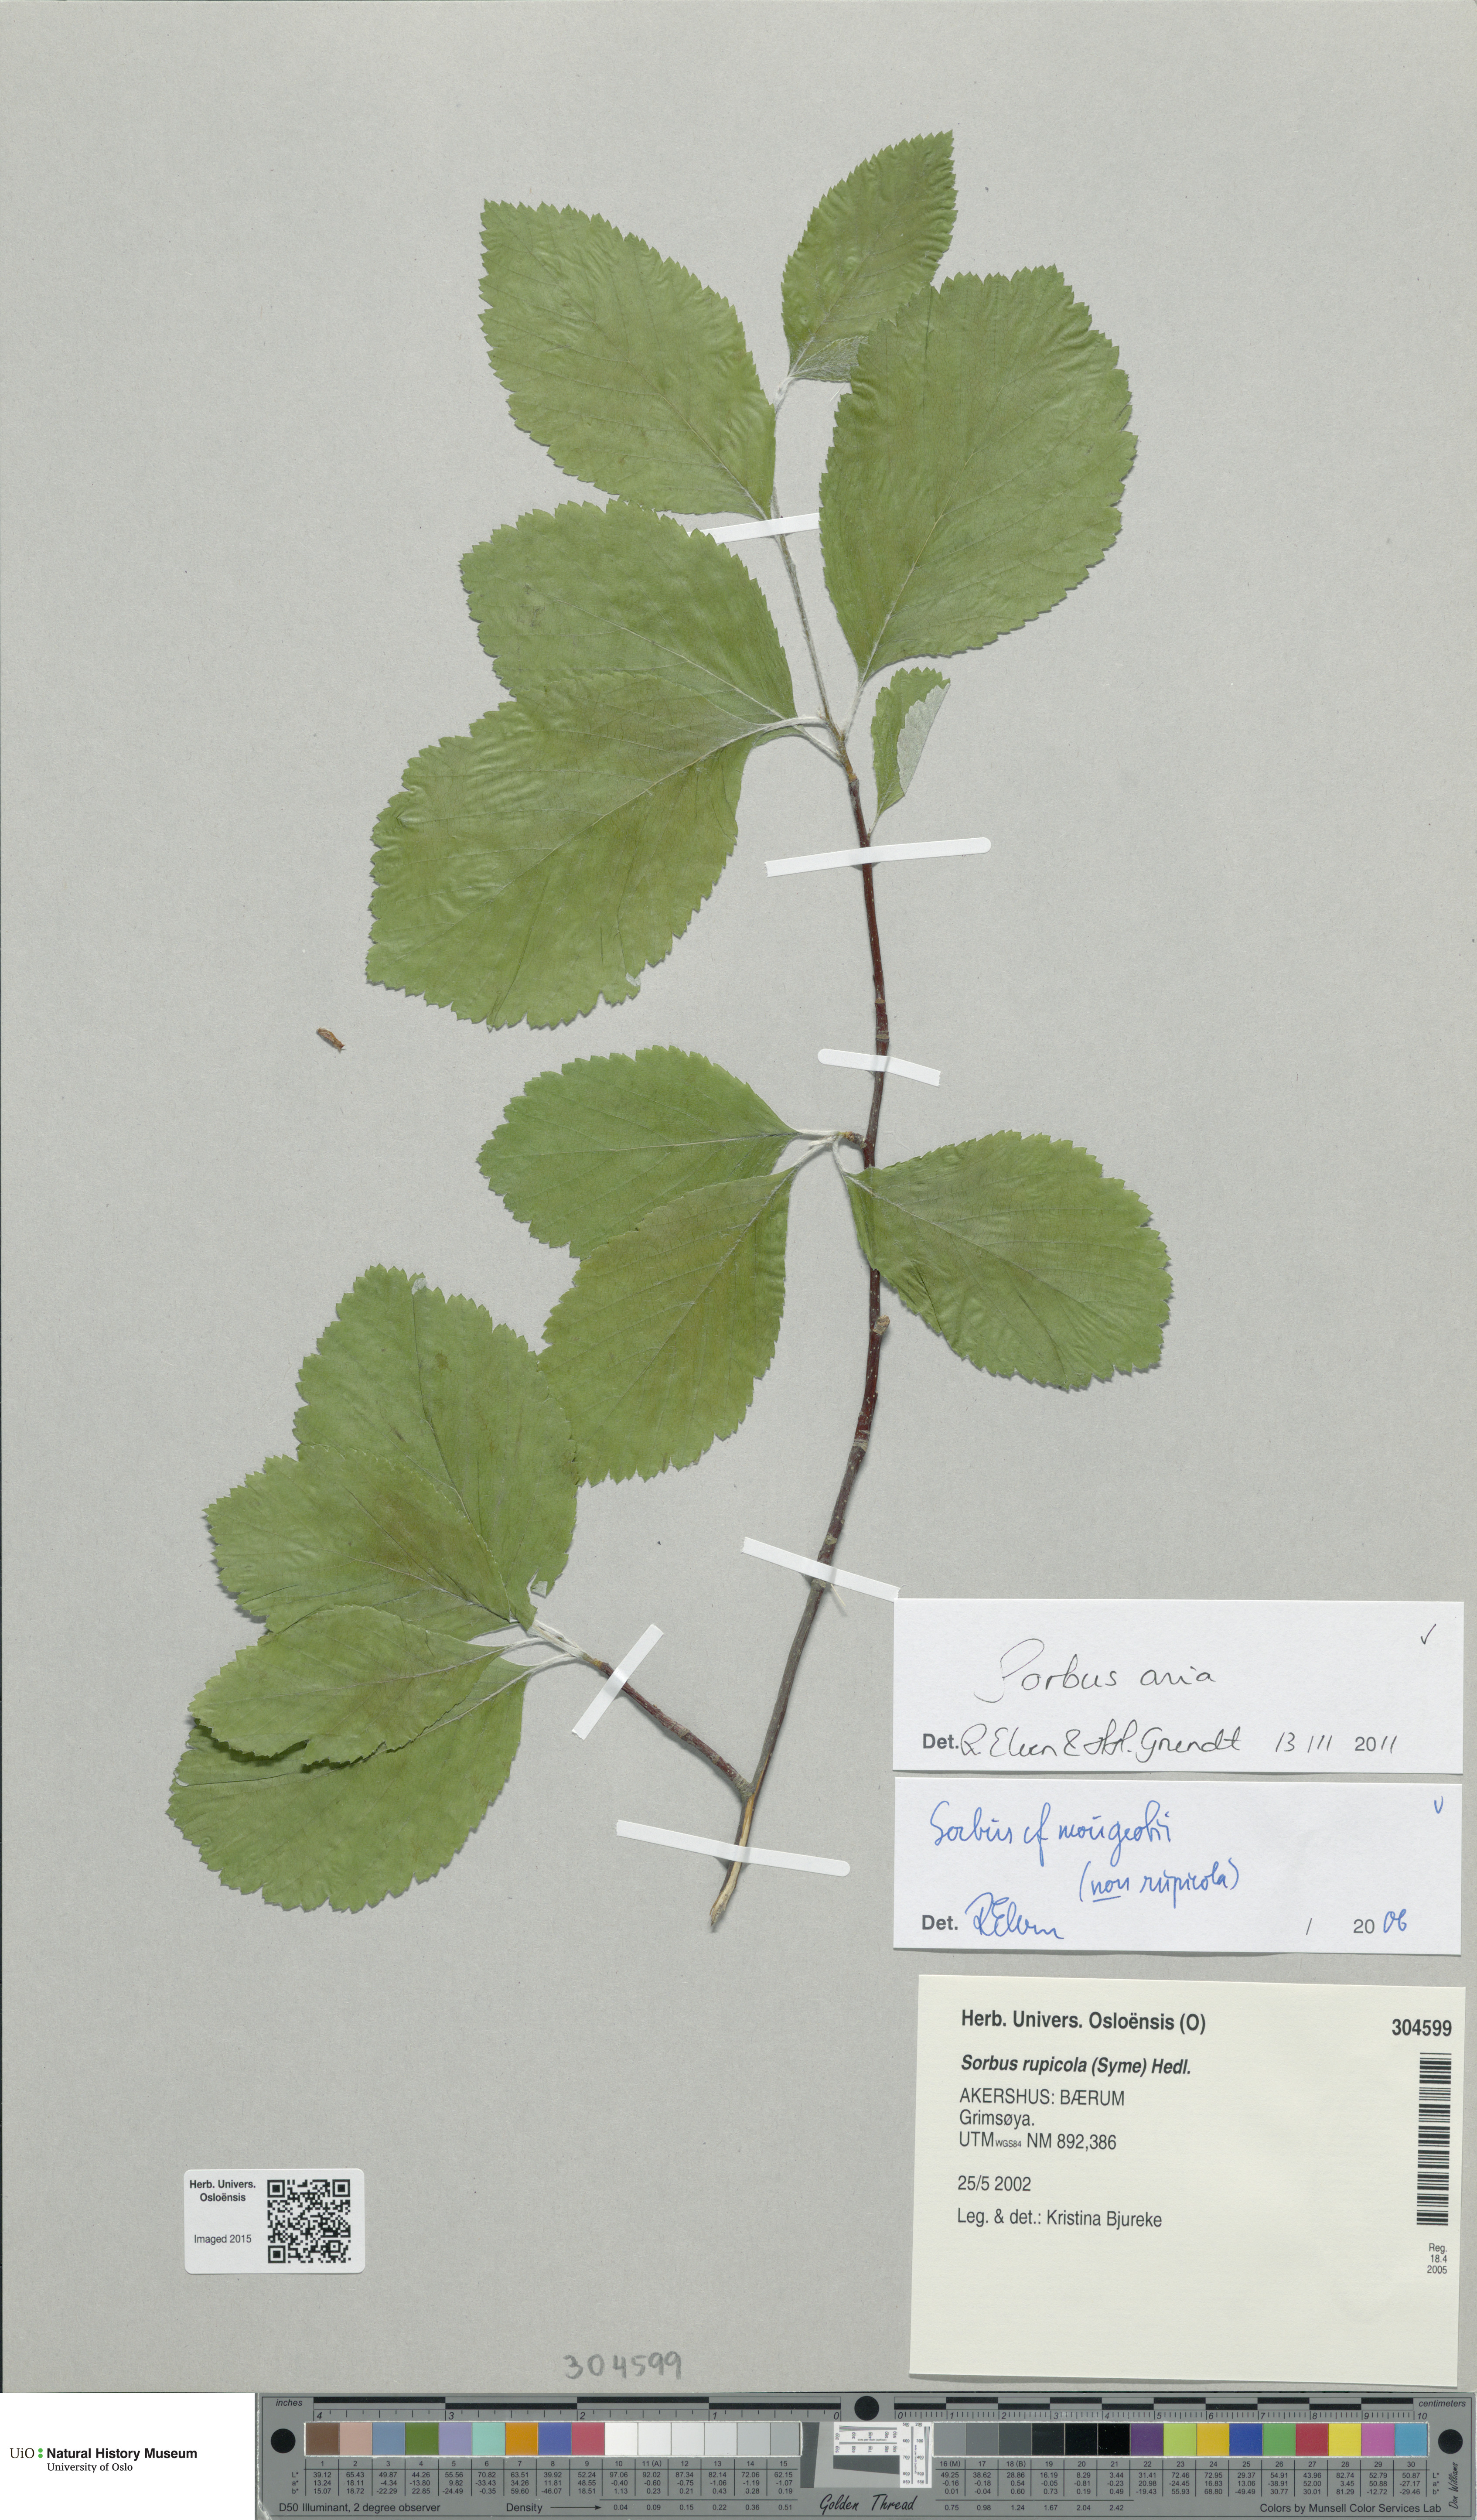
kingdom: Plantae
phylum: Tracheophyta
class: Magnoliopsida
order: Rosales
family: Rosaceae
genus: Aria
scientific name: Aria edulis
